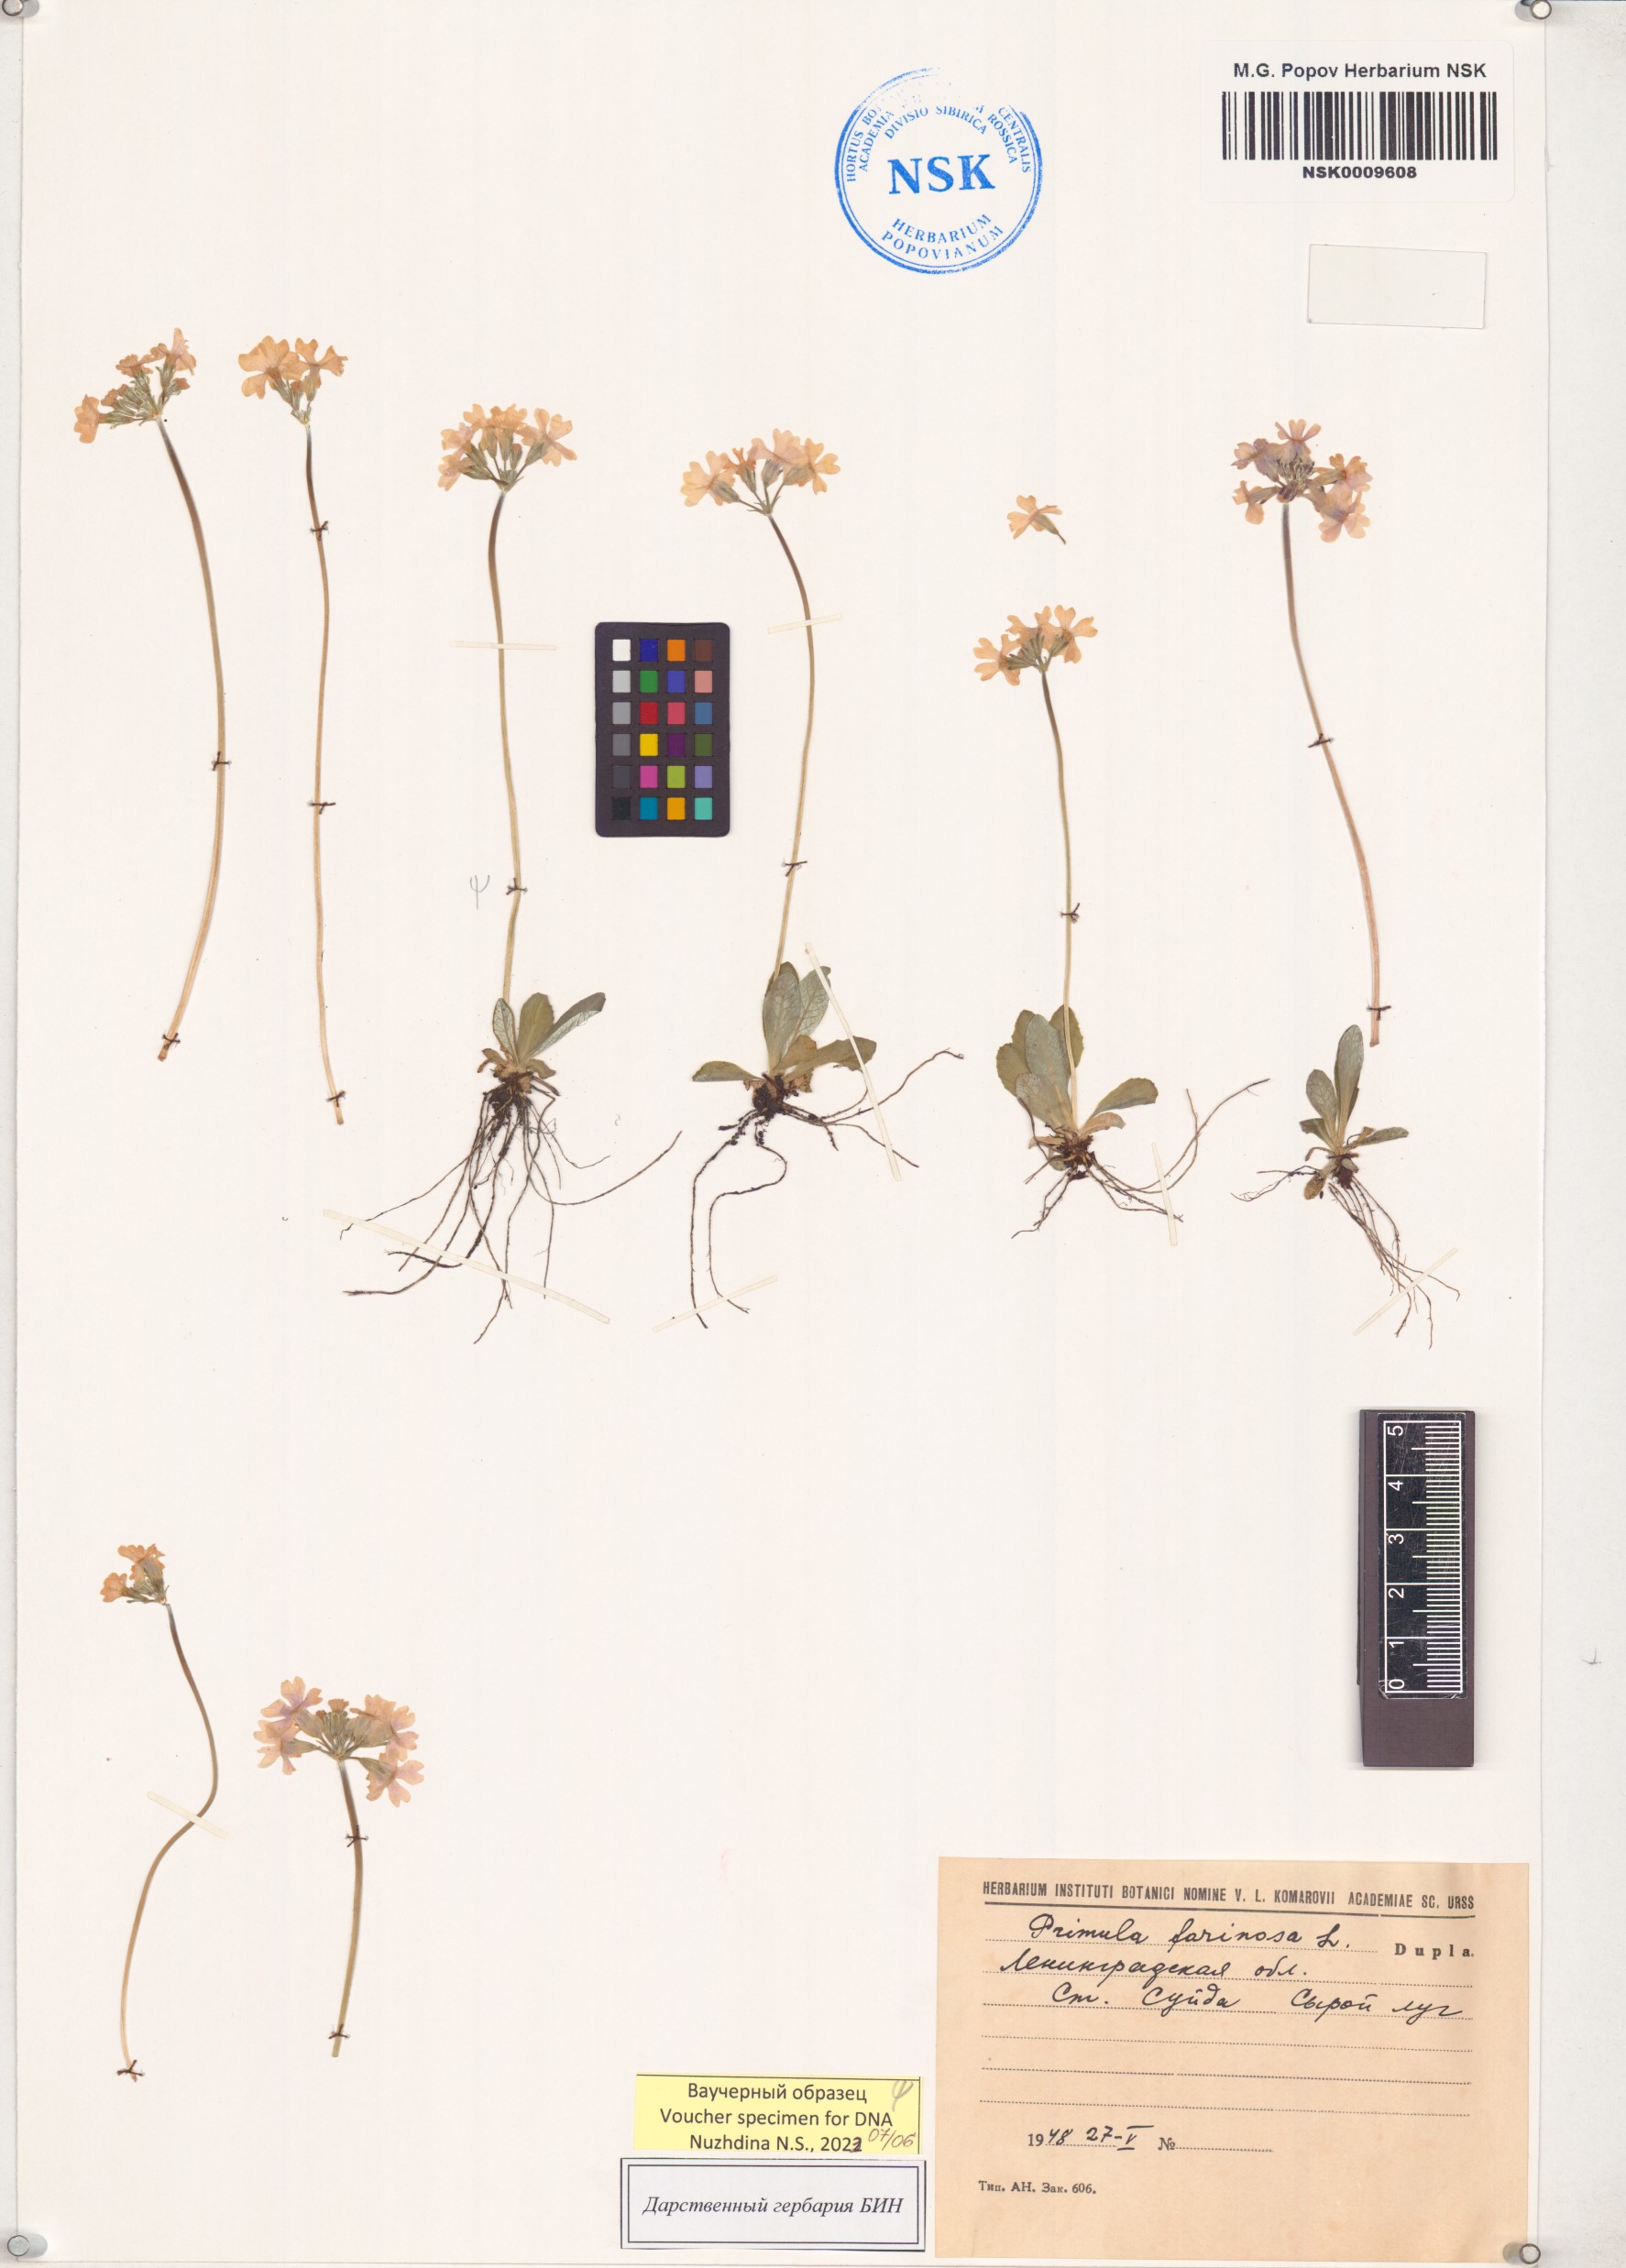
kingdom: Plantae
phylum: Tracheophyta
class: Magnoliopsida
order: Ericales
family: Primulaceae
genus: Primula
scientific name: Primula farinosa
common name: Bird's-eye primrose
